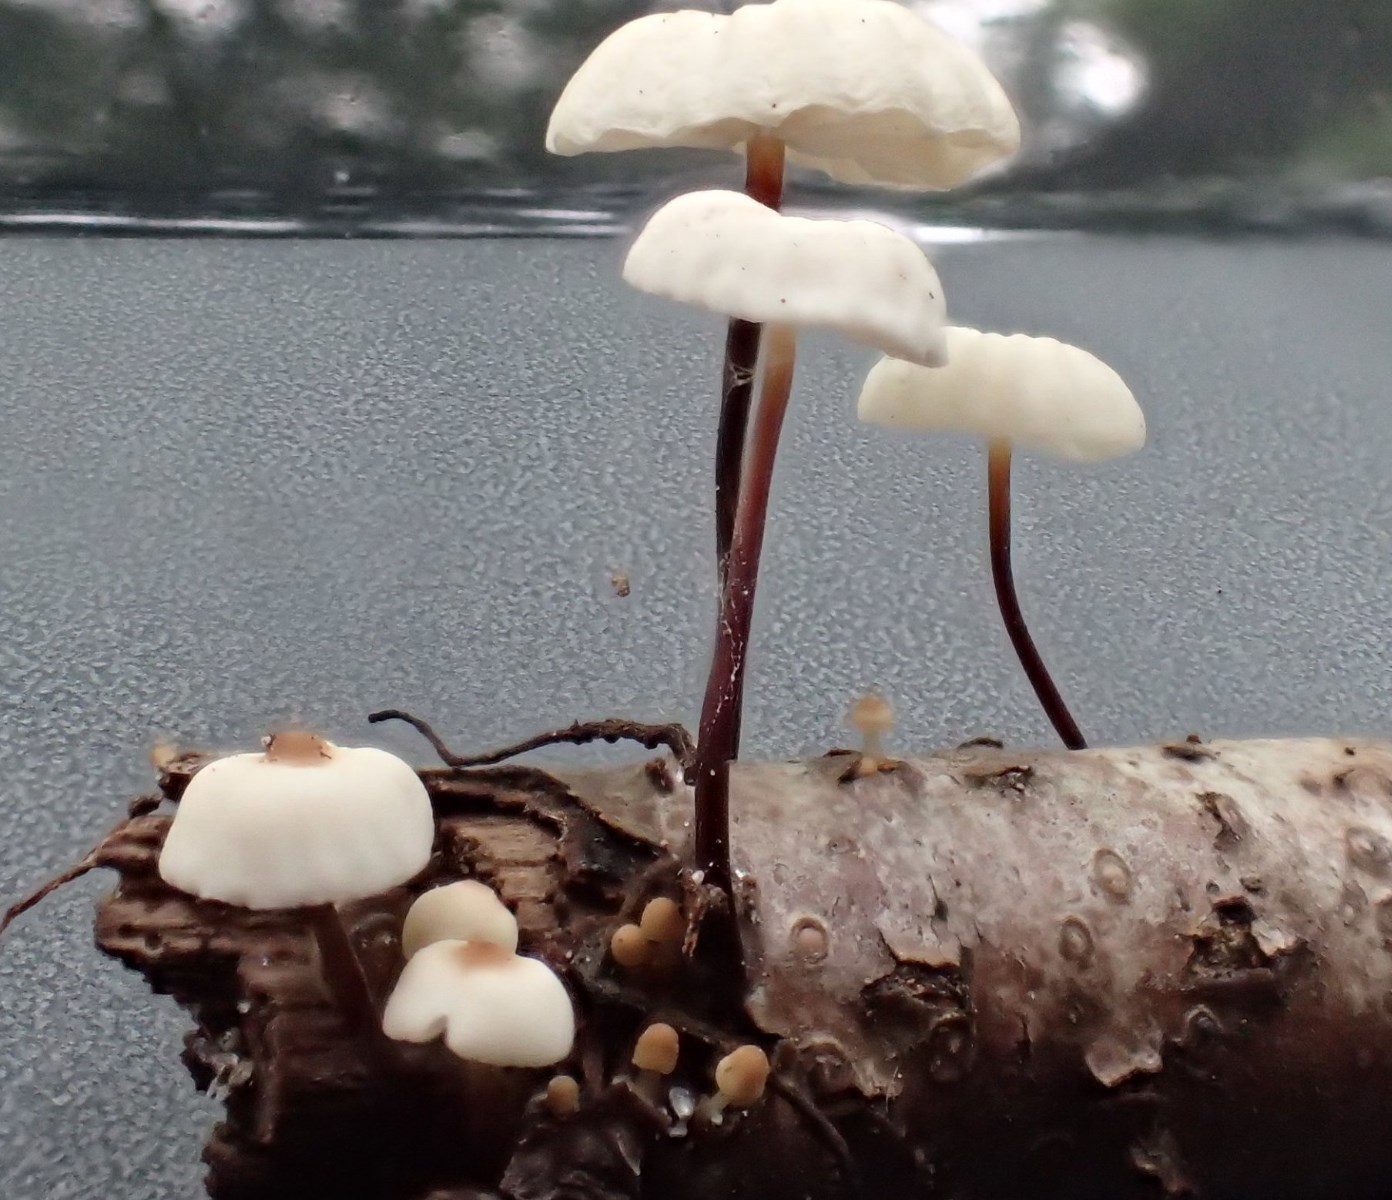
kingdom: Fungi
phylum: Basidiomycota
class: Agaricomycetes
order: Agaricales
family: Marasmiaceae
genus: Marasmius
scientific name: Marasmius rotula
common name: hjul-bruskhat
